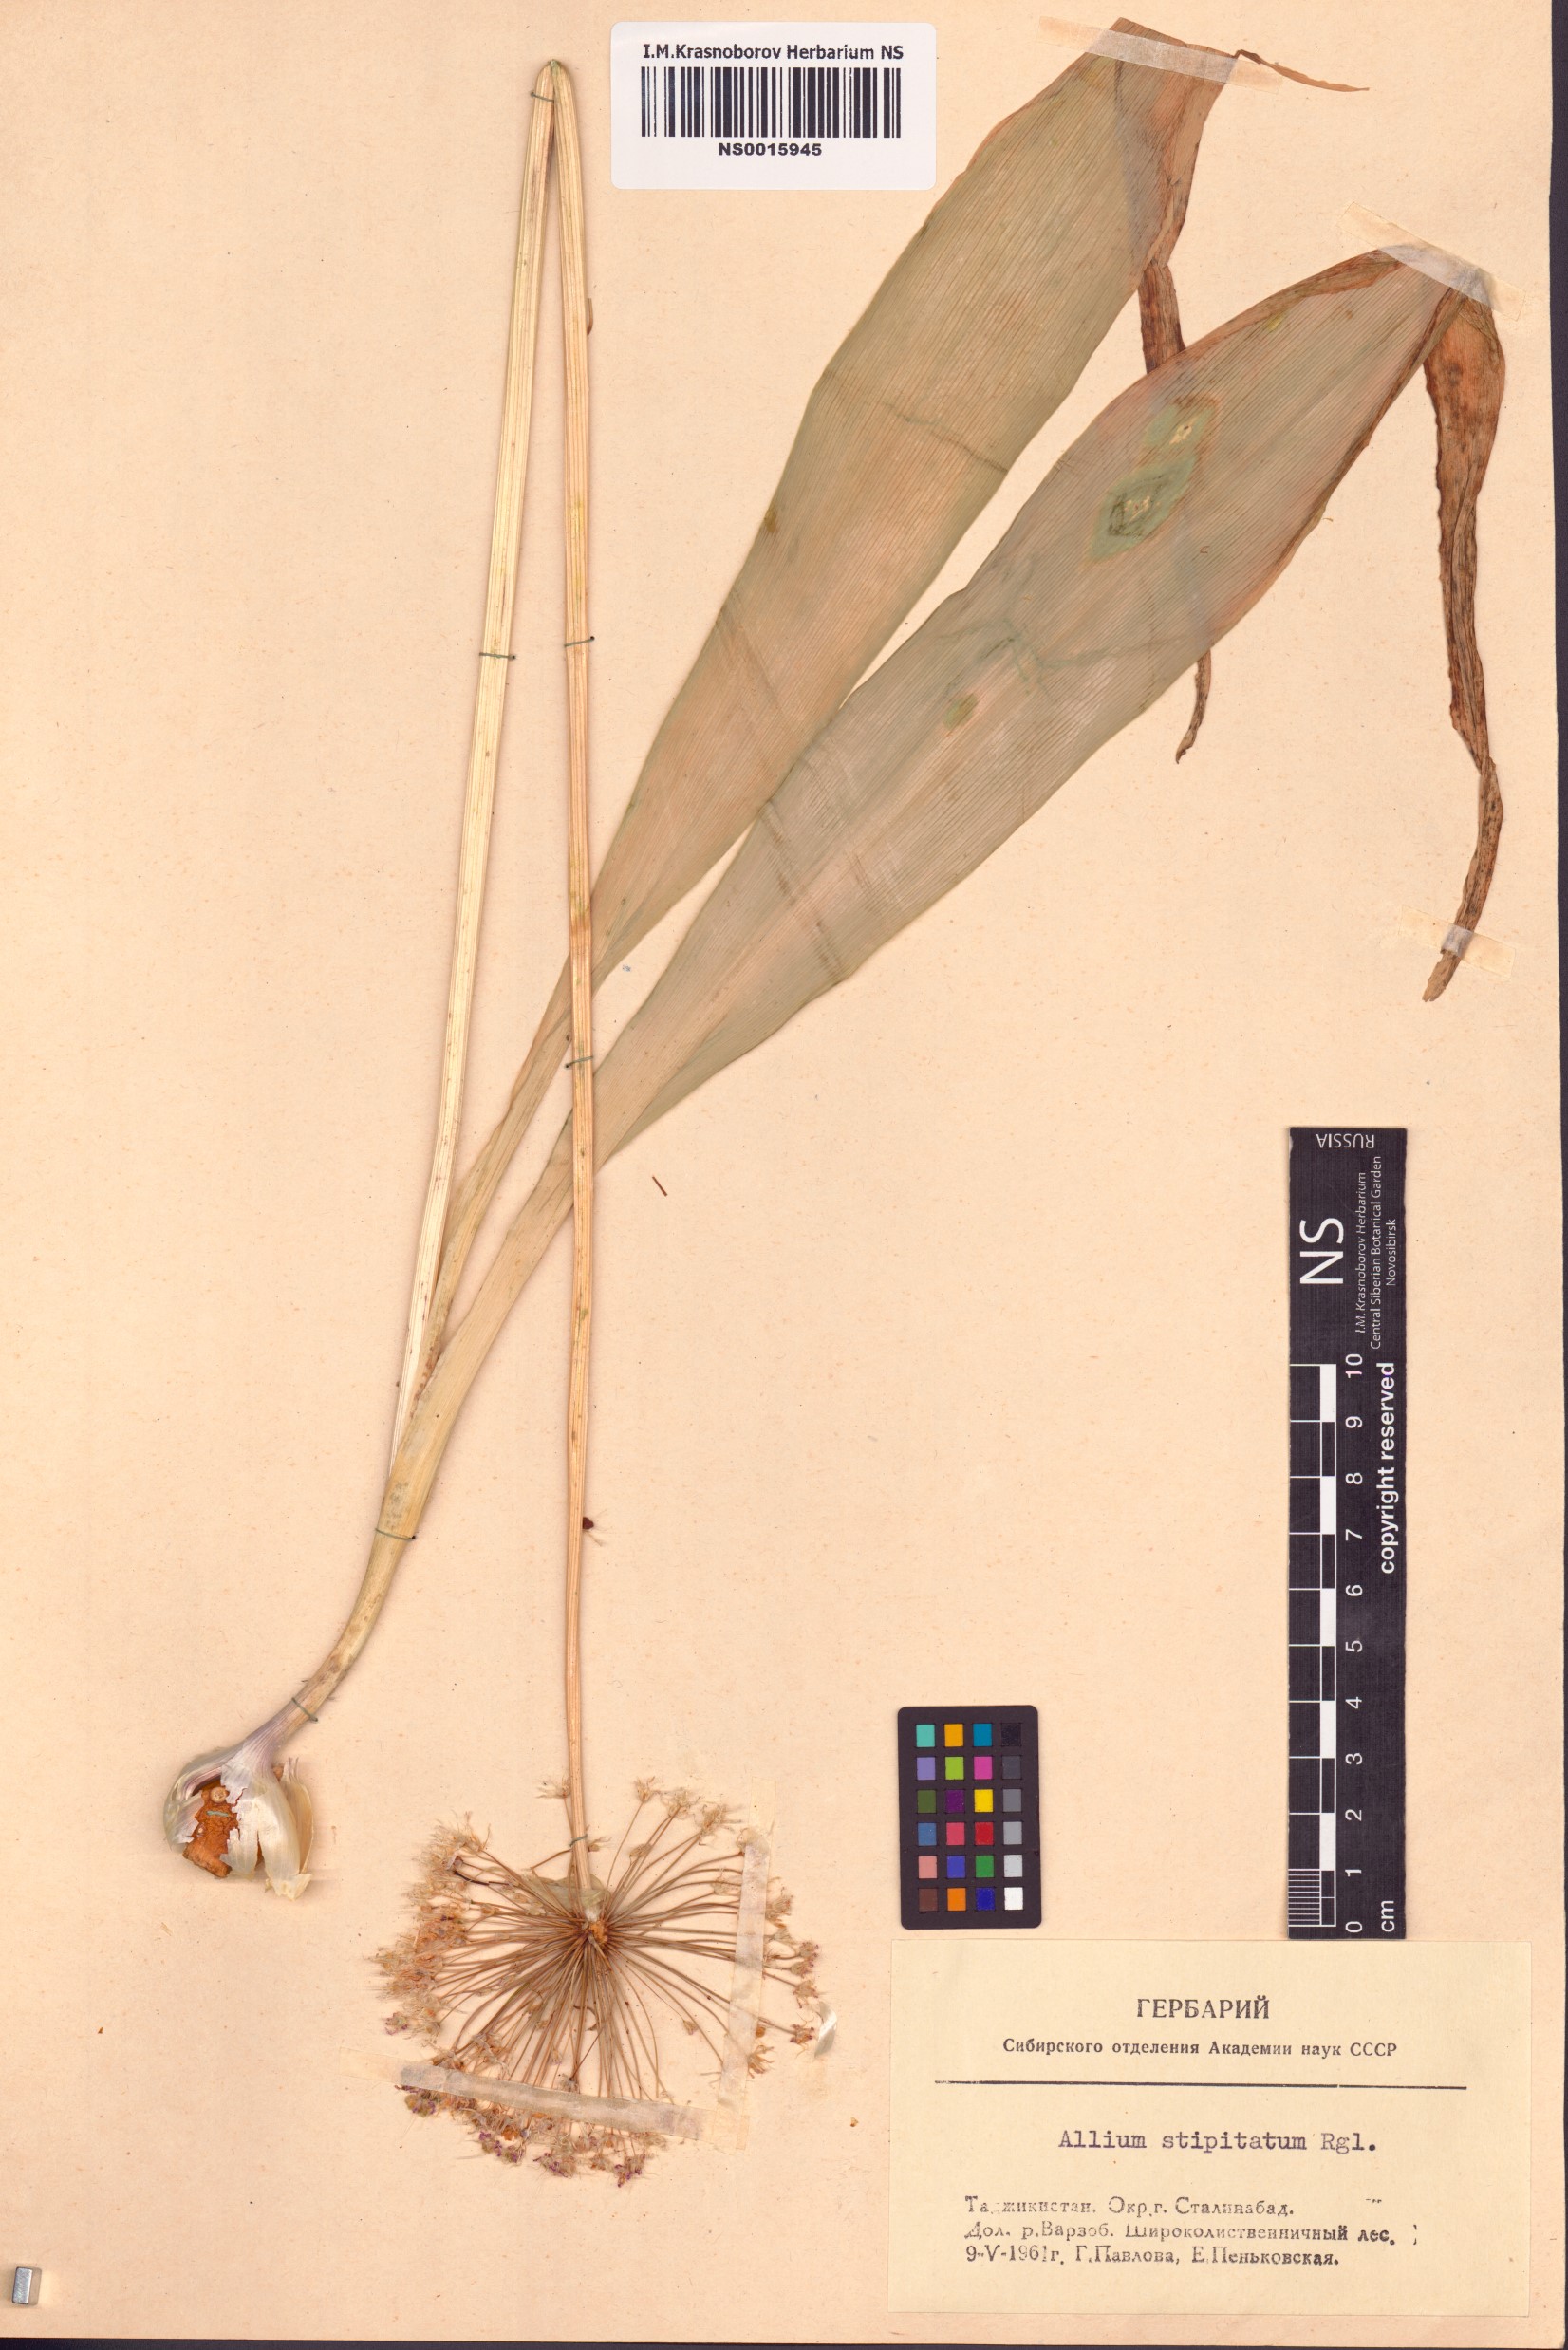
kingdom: Plantae
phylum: Tracheophyta
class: Liliopsida
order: Asparagales
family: Amaryllidaceae
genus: Allium
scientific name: Allium stipitatum
